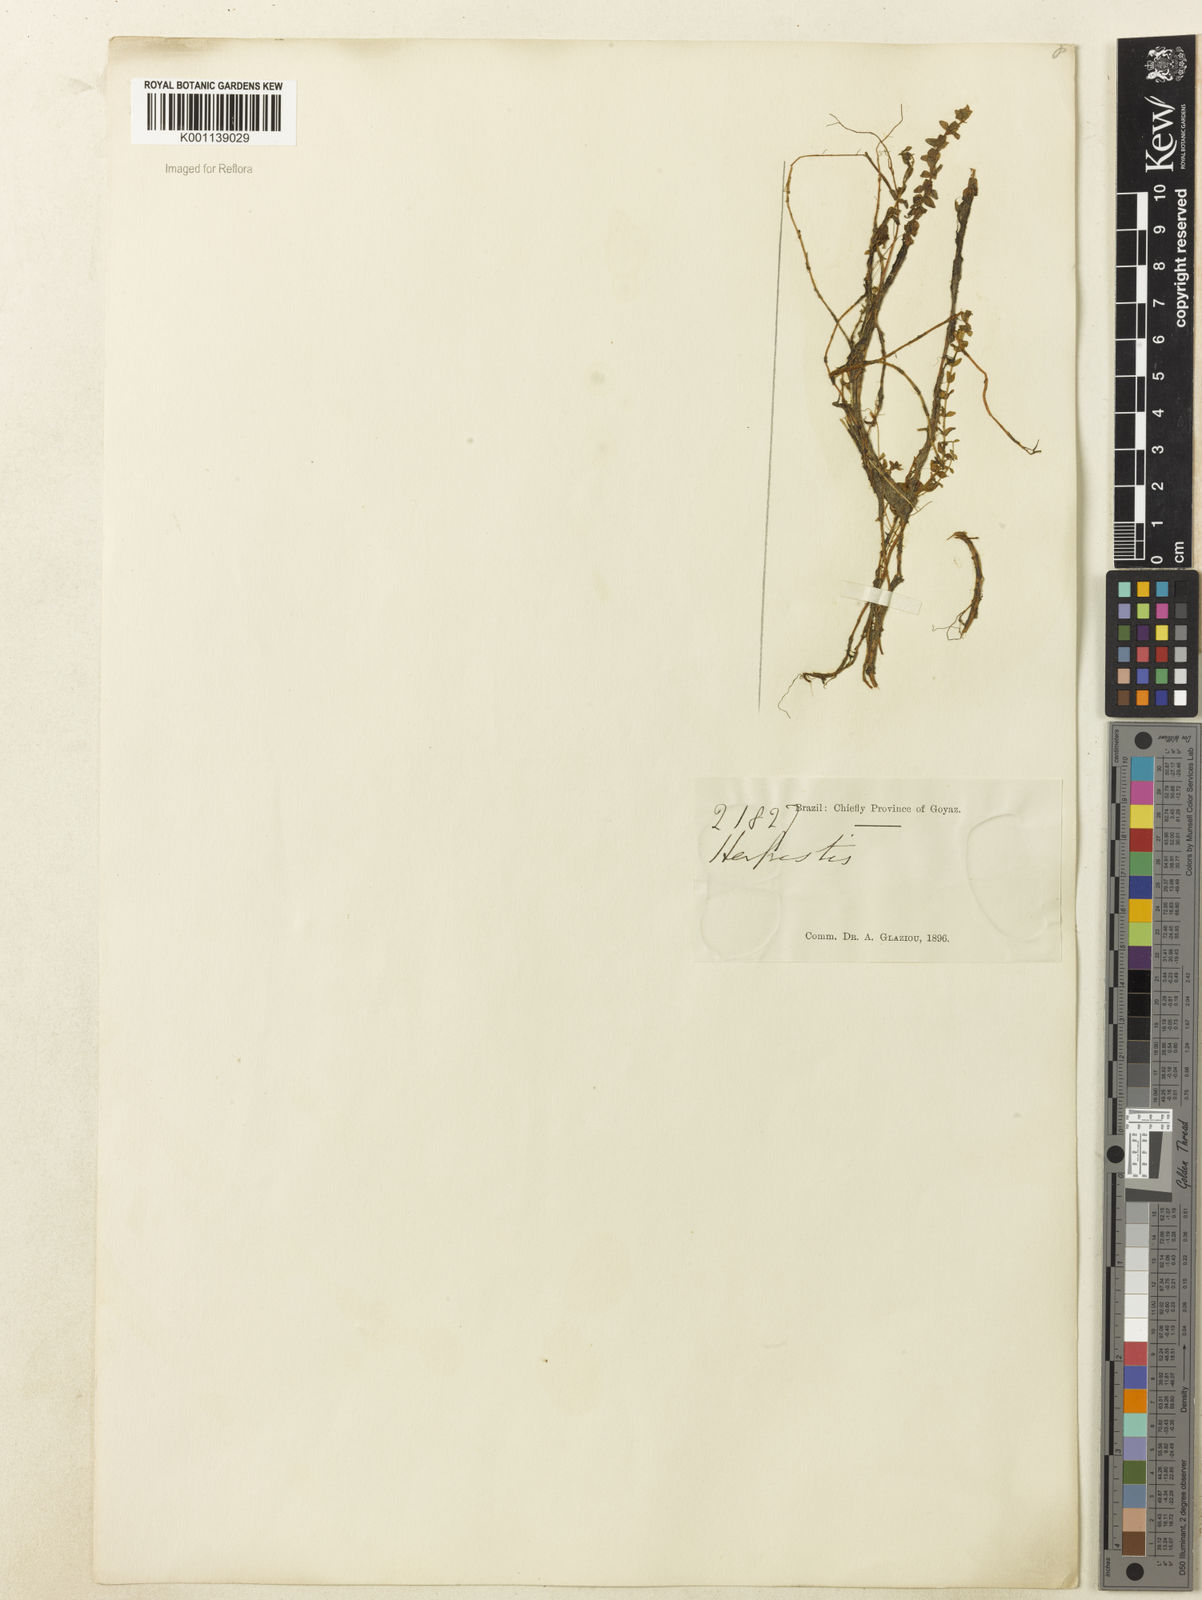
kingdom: Plantae
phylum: Tracheophyta
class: Magnoliopsida
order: Lamiales
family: Plantaginaceae
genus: Bacopa
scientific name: Bacopa
